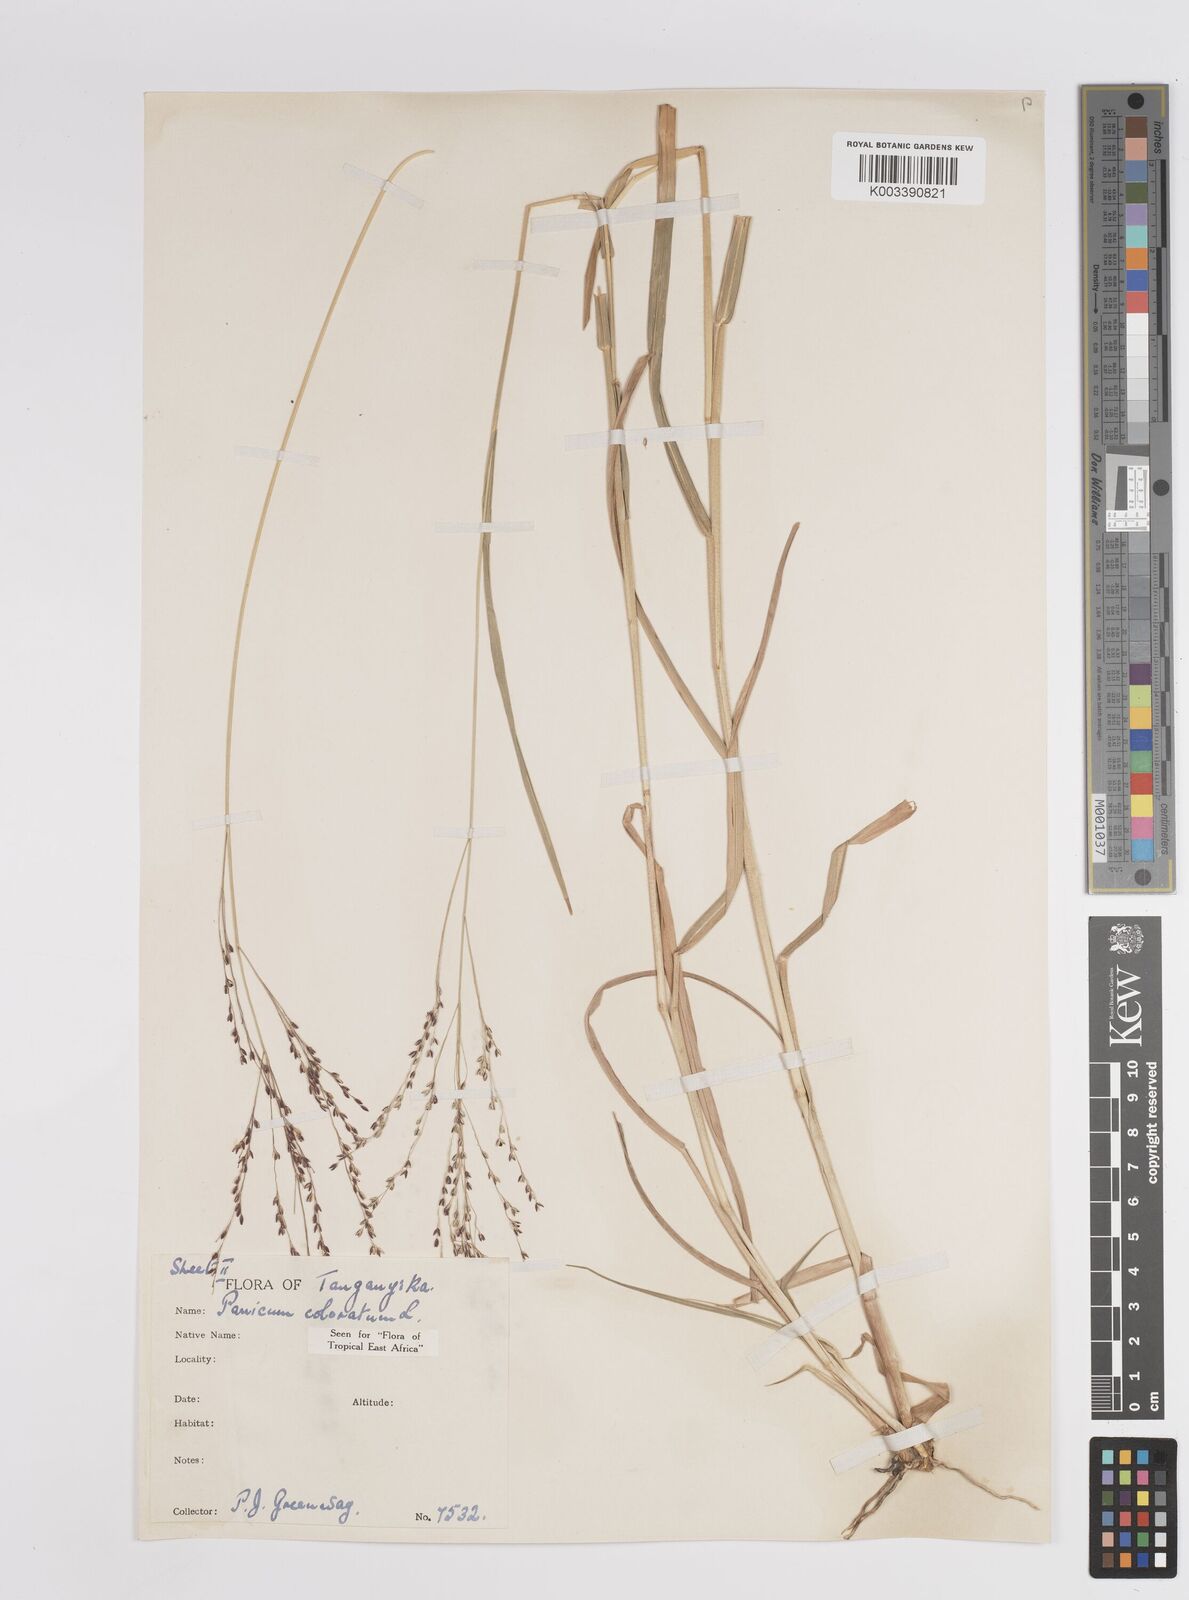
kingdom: Plantae
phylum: Tracheophyta
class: Liliopsida
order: Poales
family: Poaceae
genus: Panicum
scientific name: Panicum coloratum
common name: Kleingrass
